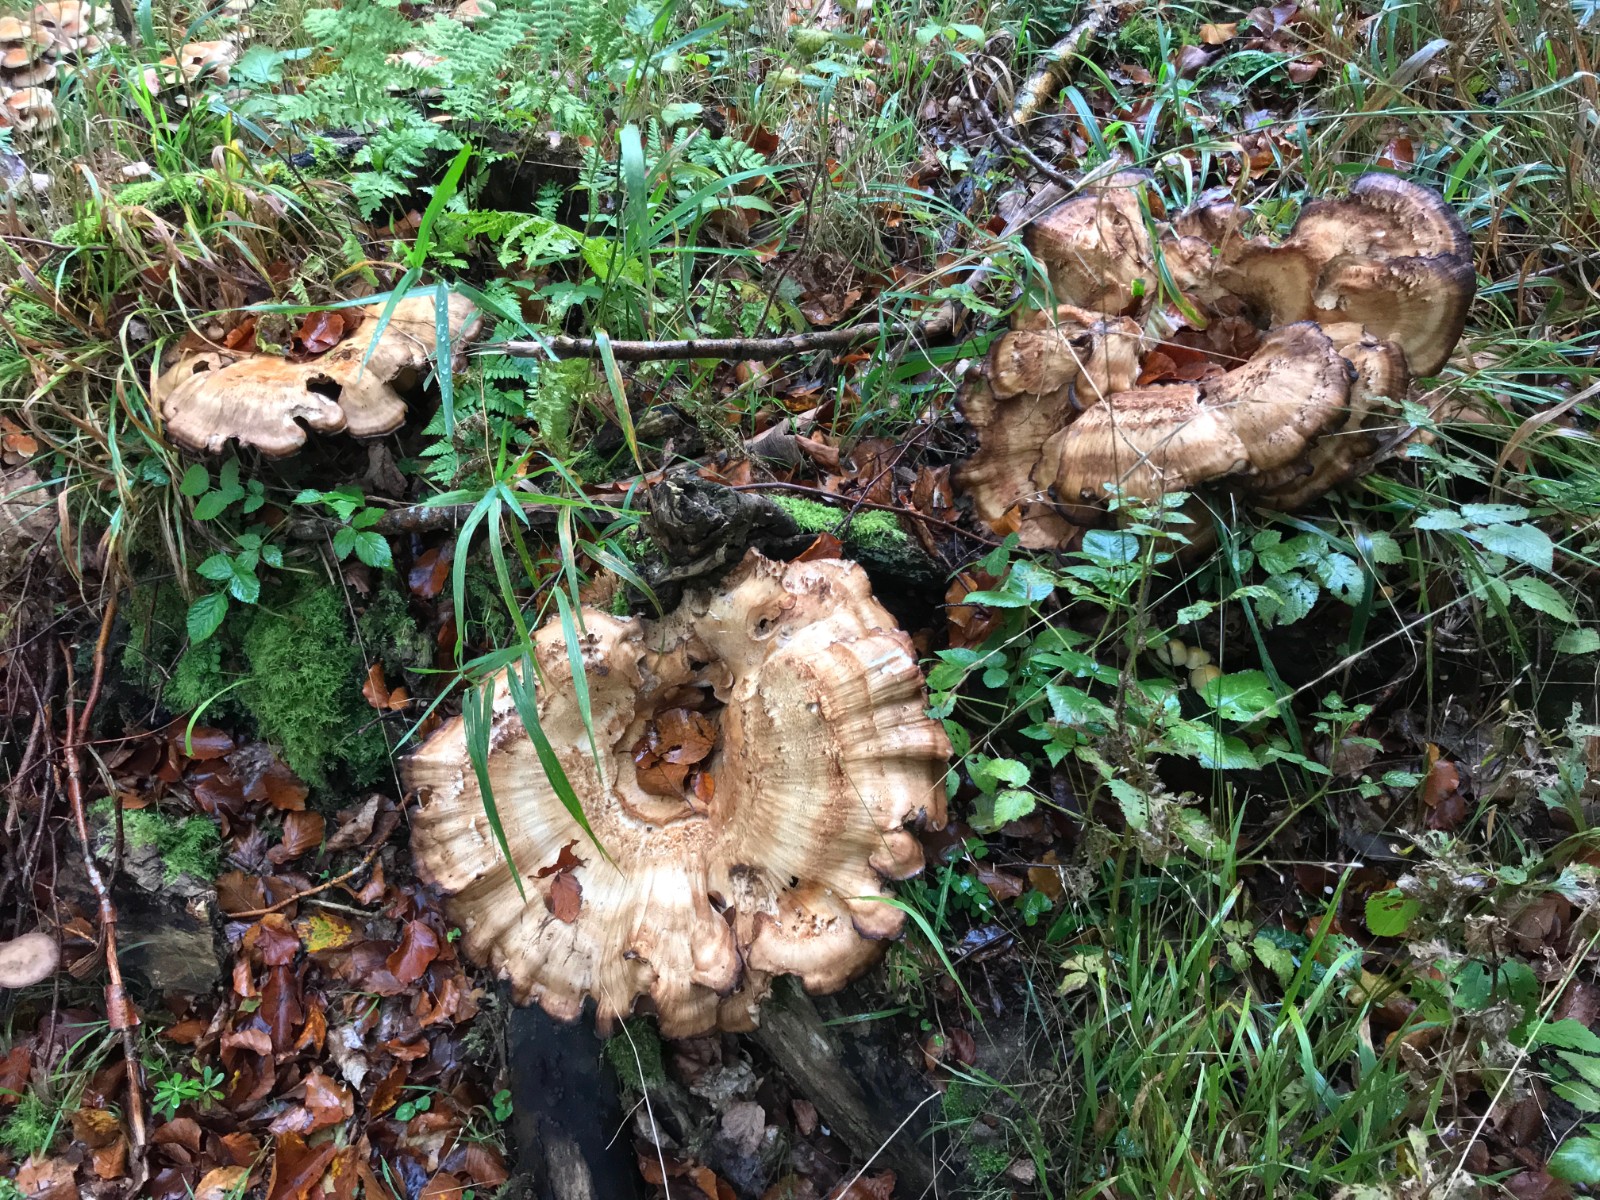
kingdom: Fungi
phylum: Basidiomycota
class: Agaricomycetes
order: Polyporales
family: Meripilaceae
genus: Meripilus
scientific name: Meripilus giganteus
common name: kæmpeporesvamp
